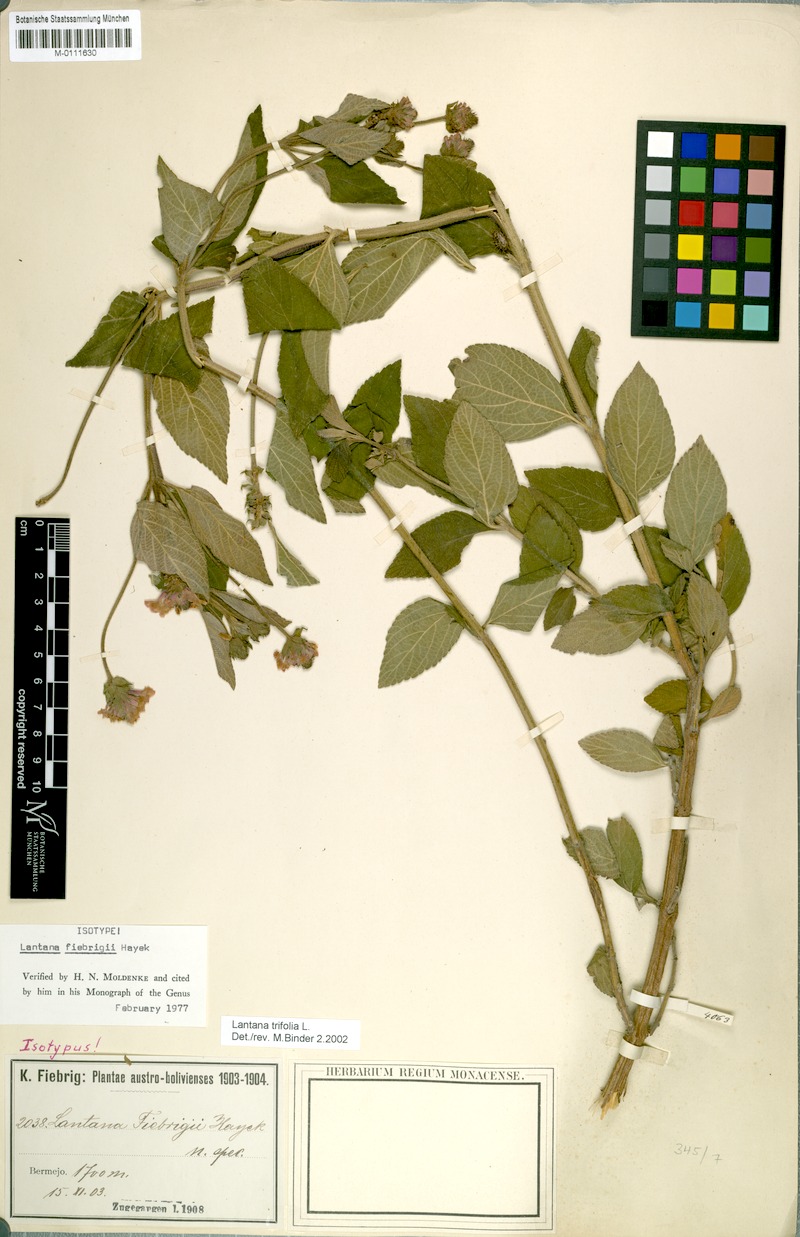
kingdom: Plantae
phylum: Tracheophyta
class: Magnoliopsida
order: Lamiales
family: Verbenaceae
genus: Lantana
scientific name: Lantana trifolia
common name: Sweet-sage
